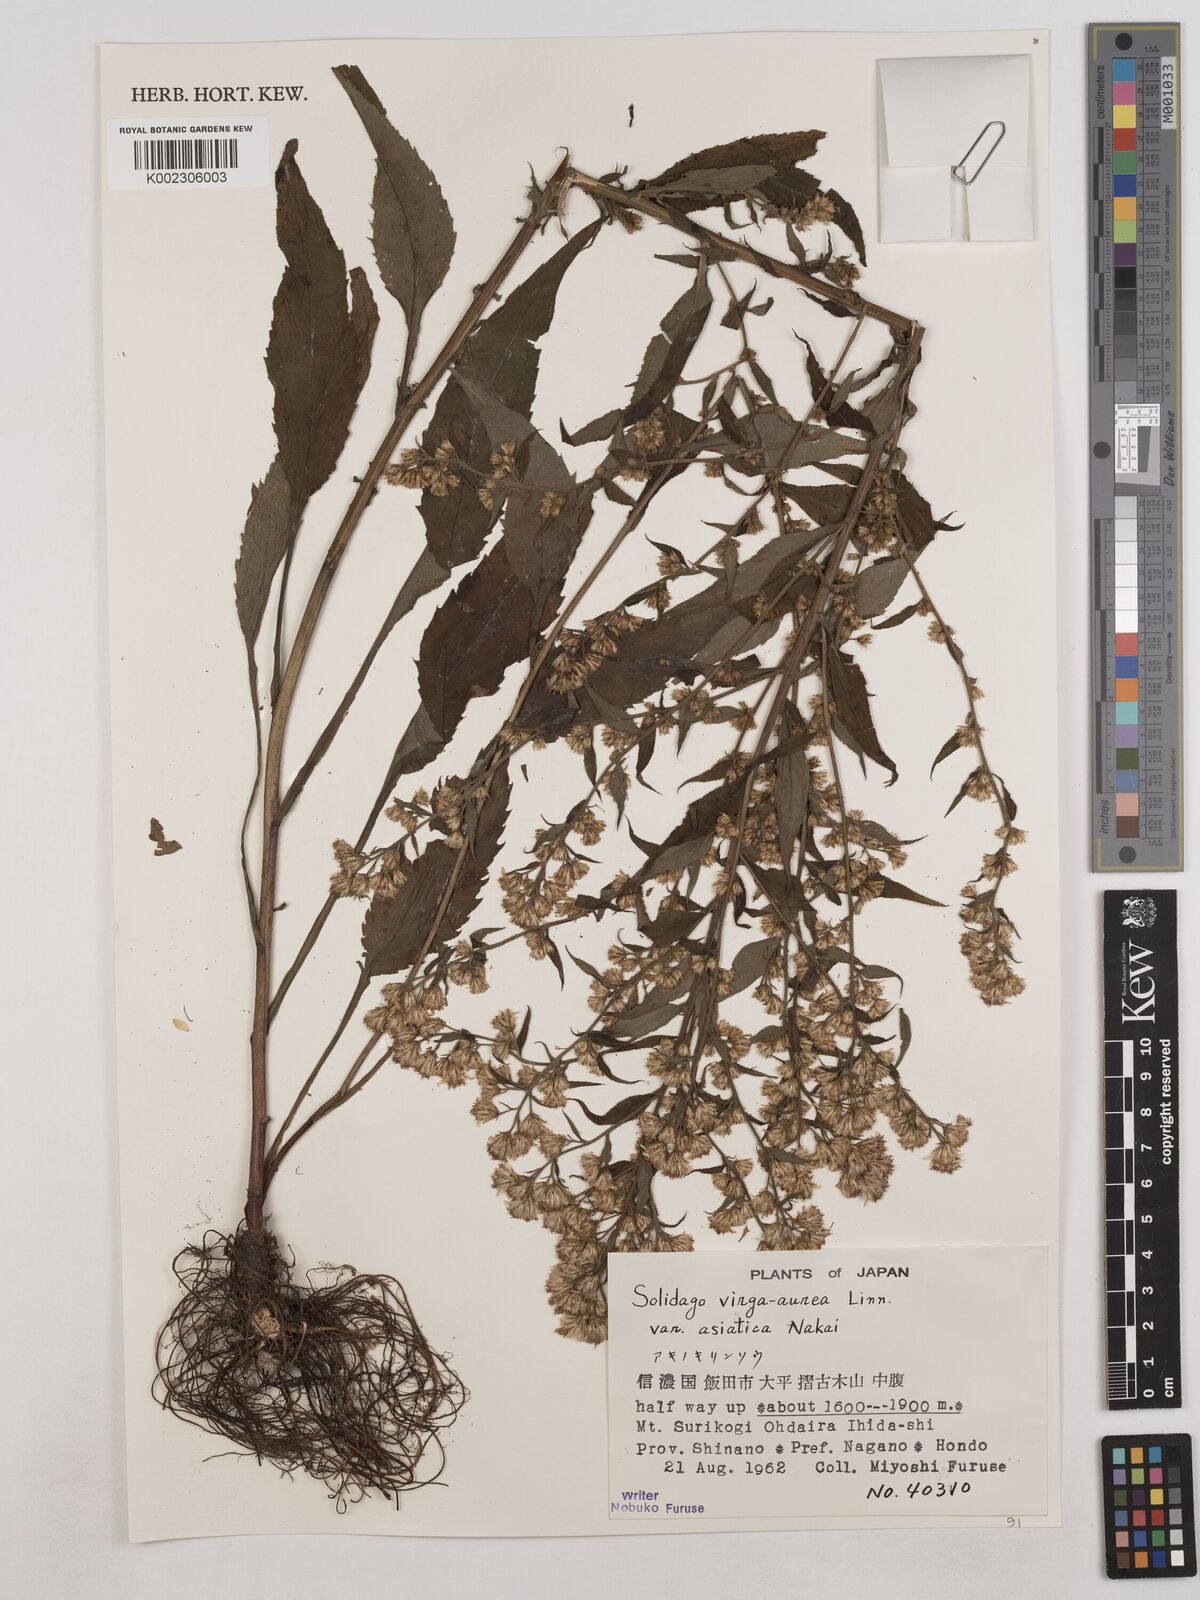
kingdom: Plantae
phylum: Tracheophyta
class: Magnoliopsida
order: Asterales
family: Asteraceae
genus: Solidago
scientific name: Solidago virgaurea
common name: Goldenrod
